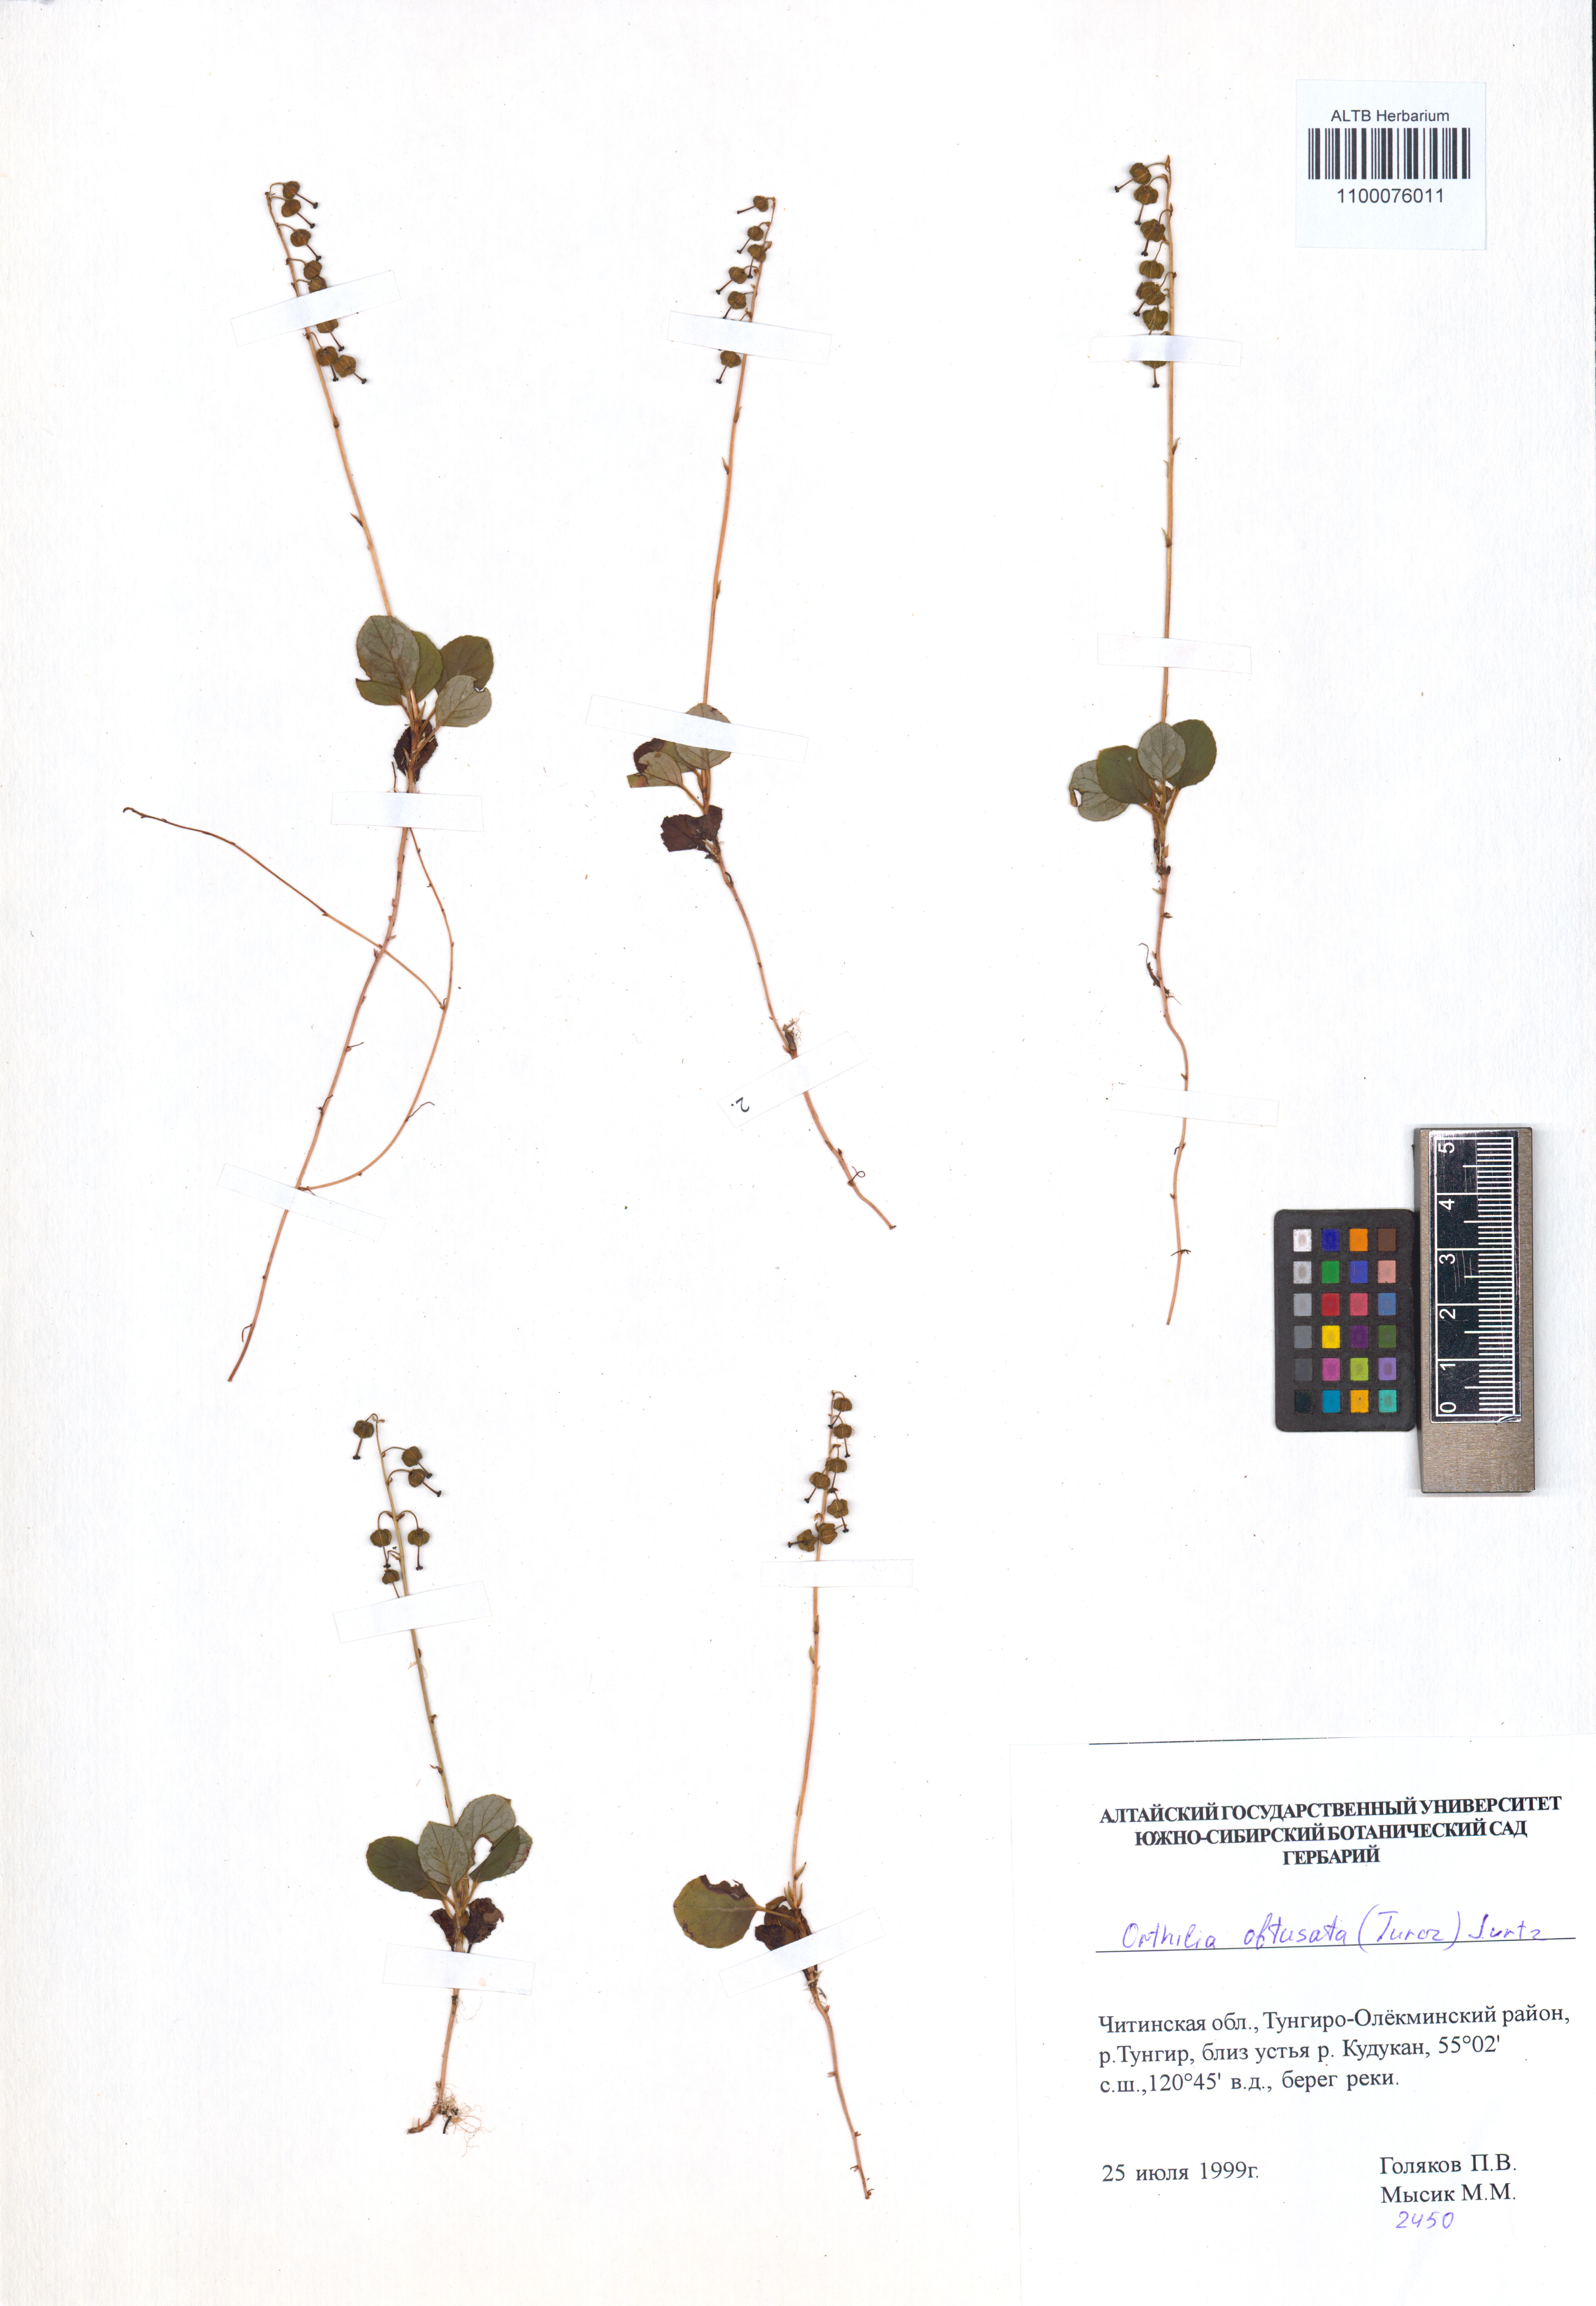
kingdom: Plantae
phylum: Tracheophyta
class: Magnoliopsida
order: Ericales
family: Ericaceae
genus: Orthilia
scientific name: Orthilia secunda
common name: One-sided orthilia
